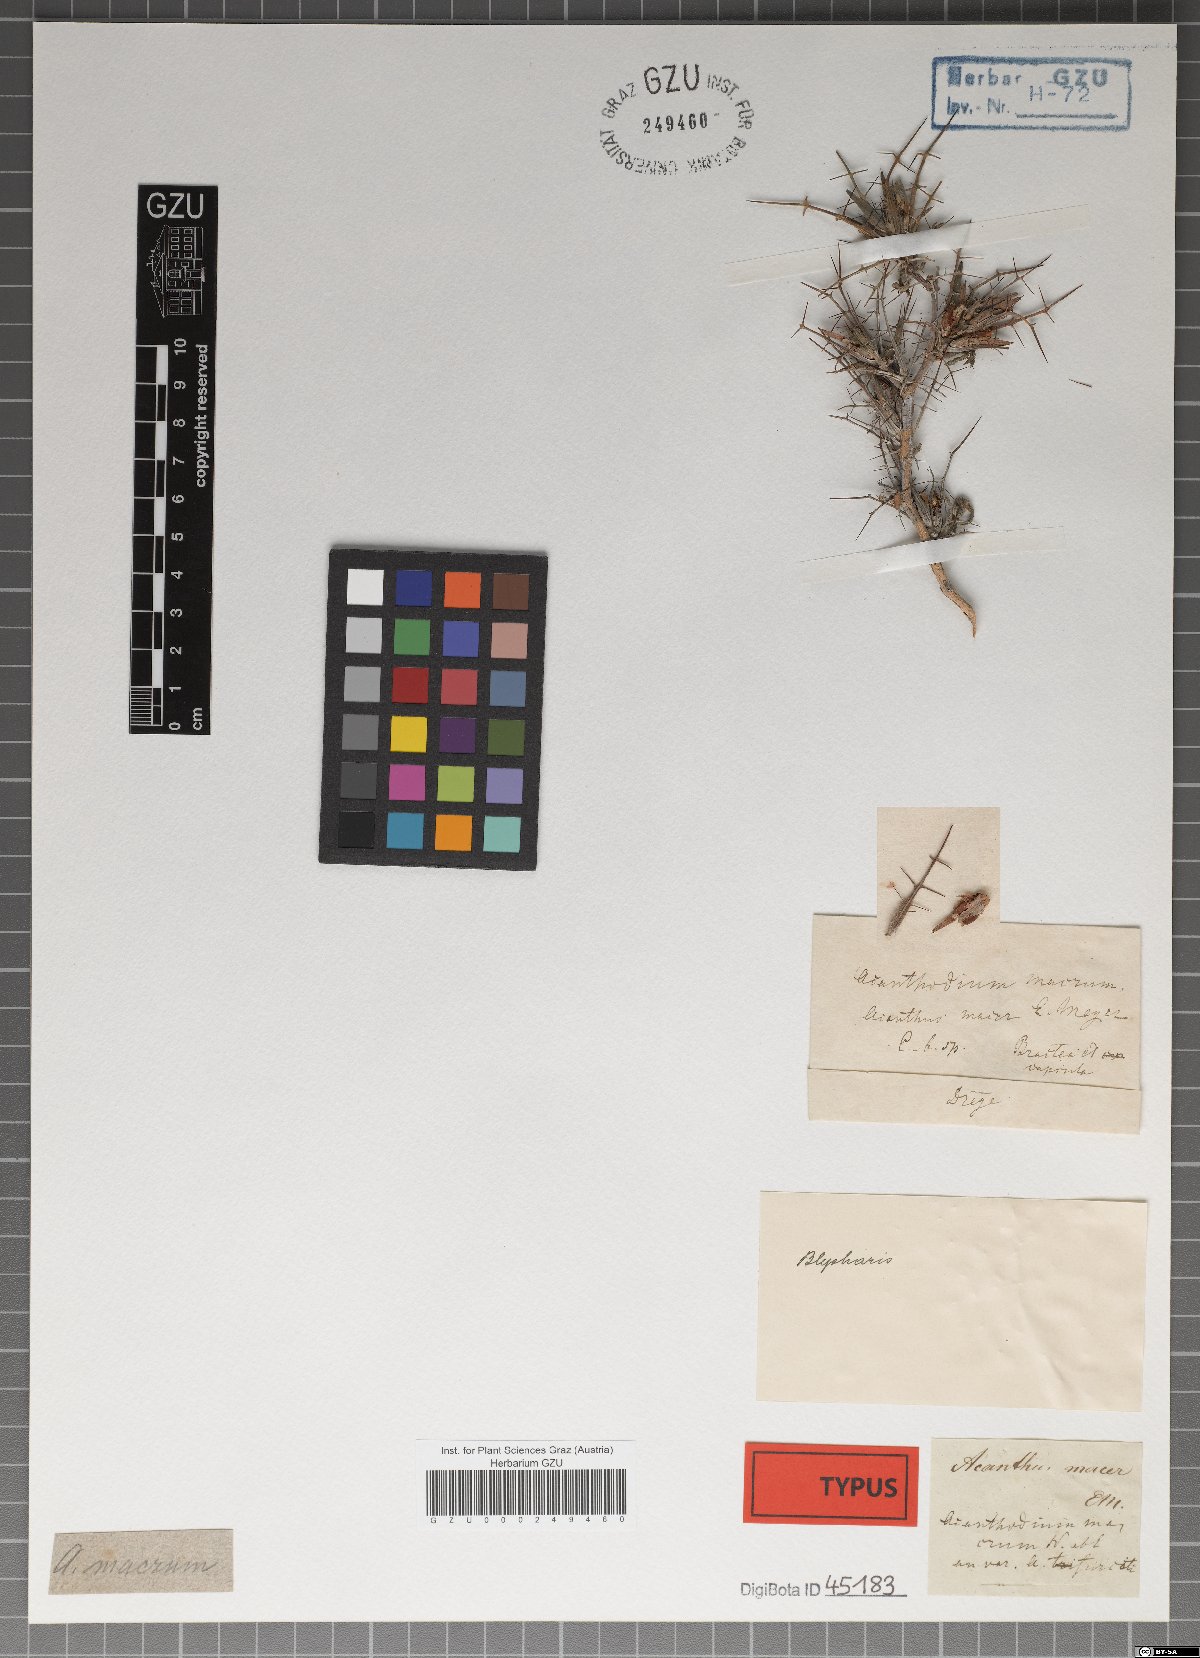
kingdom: Plantae
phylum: Tracheophyta
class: Magnoliopsida
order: Lamiales
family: Acanthaceae
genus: Blepharis
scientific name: Blepharis macra
